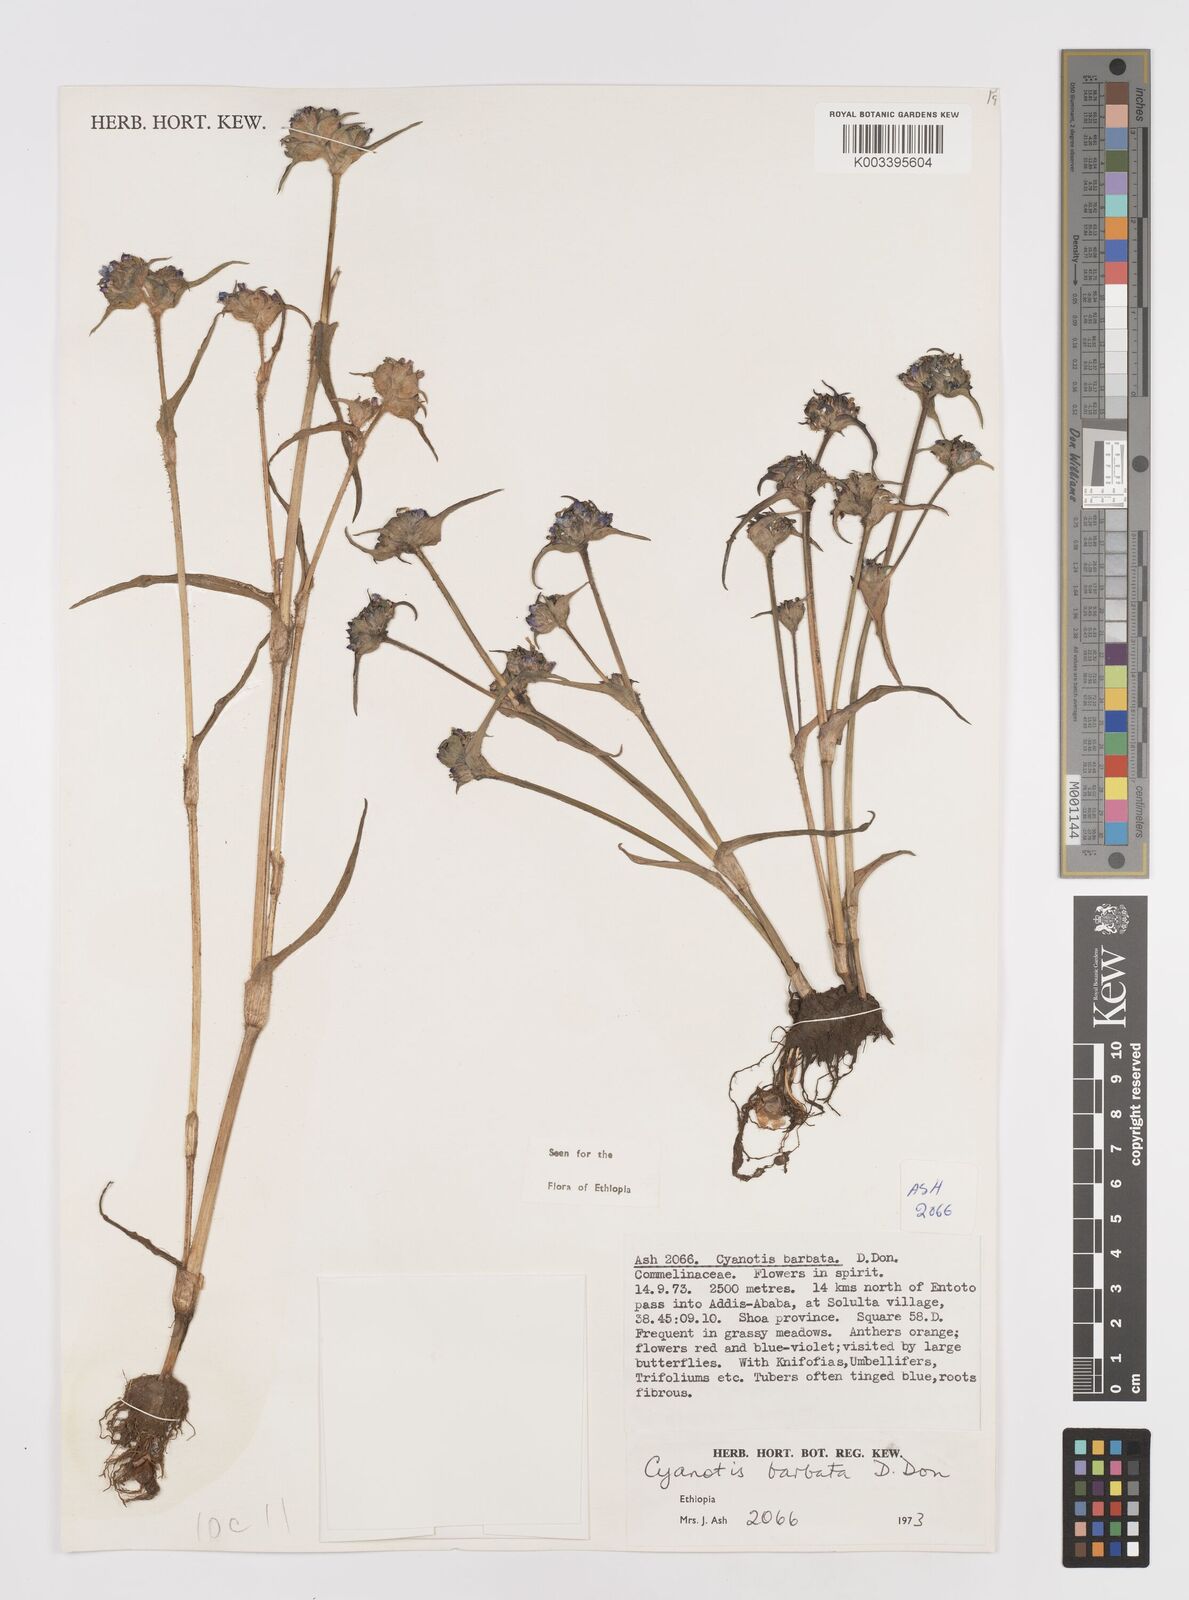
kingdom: Plantae
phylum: Tracheophyta
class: Liliopsida
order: Commelinales
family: Commelinaceae
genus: Cyanotis
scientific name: Cyanotis vaga
